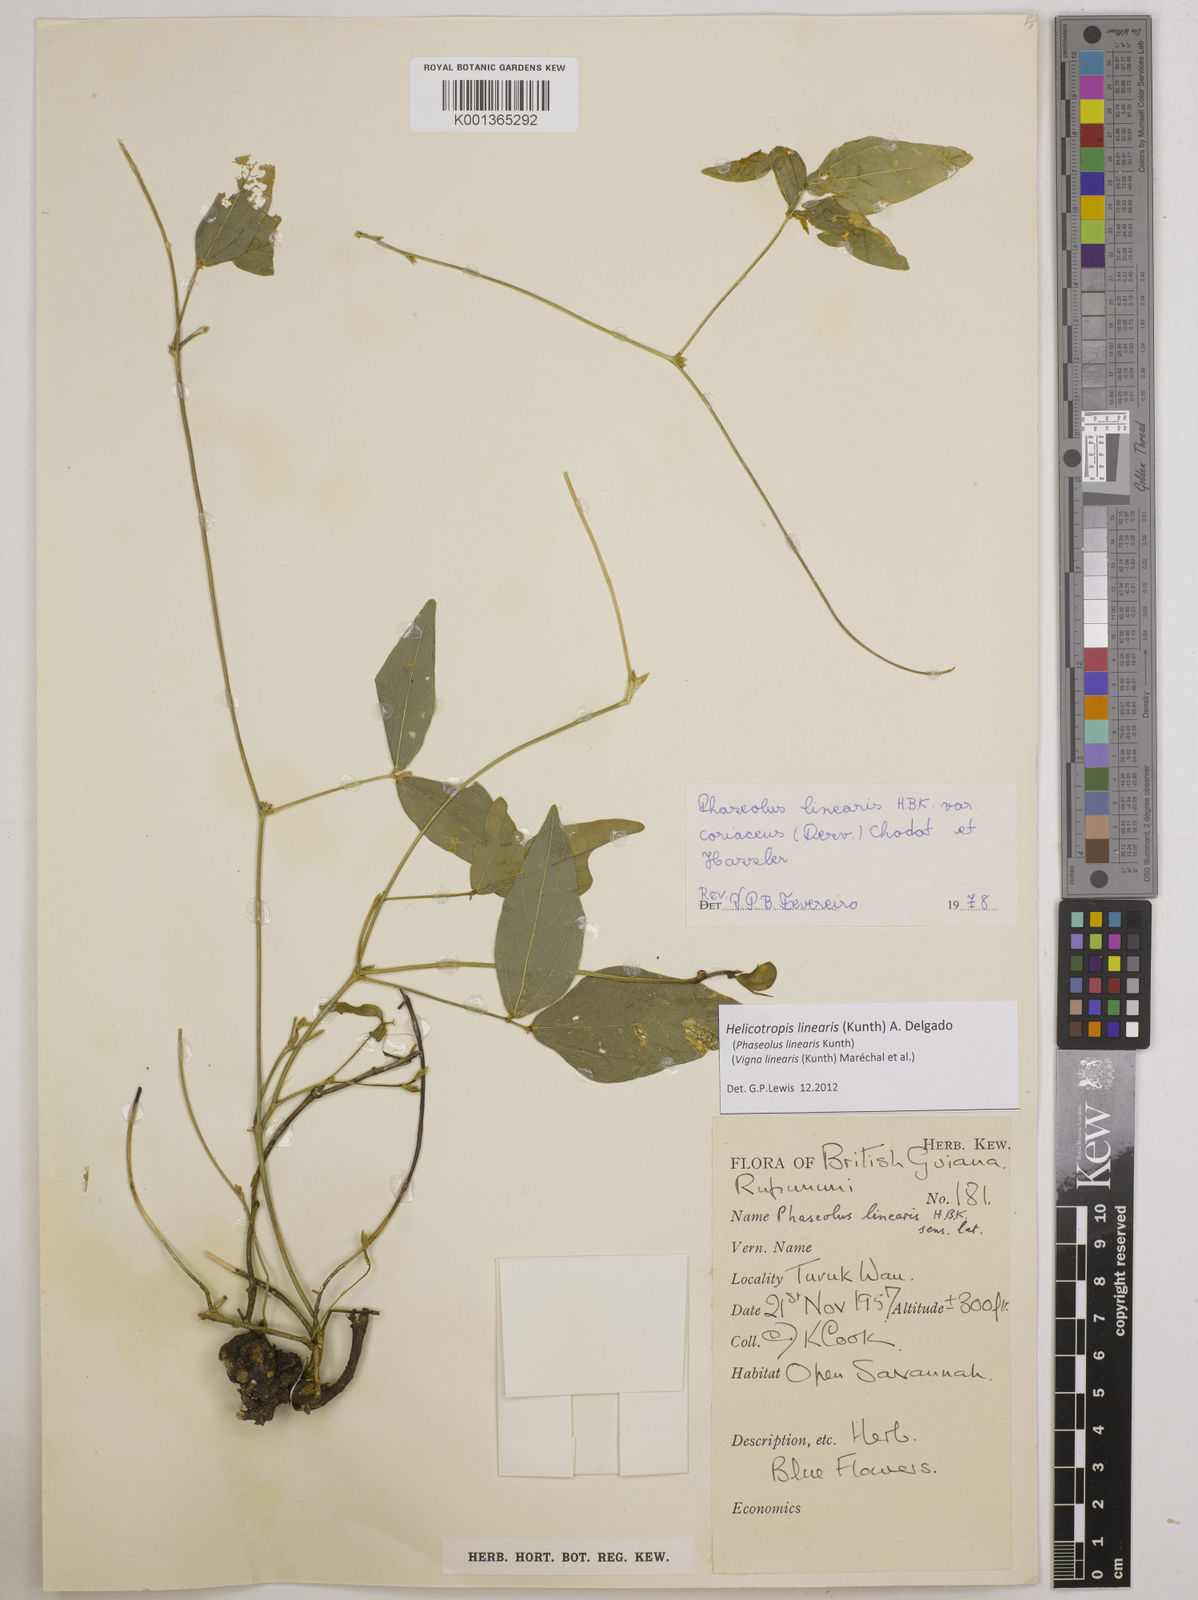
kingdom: Plantae
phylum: Tracheophyta
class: Magnoliopsida
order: Fabales
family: Fabaceae
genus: Helicotropis
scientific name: Helicotropis linearis
